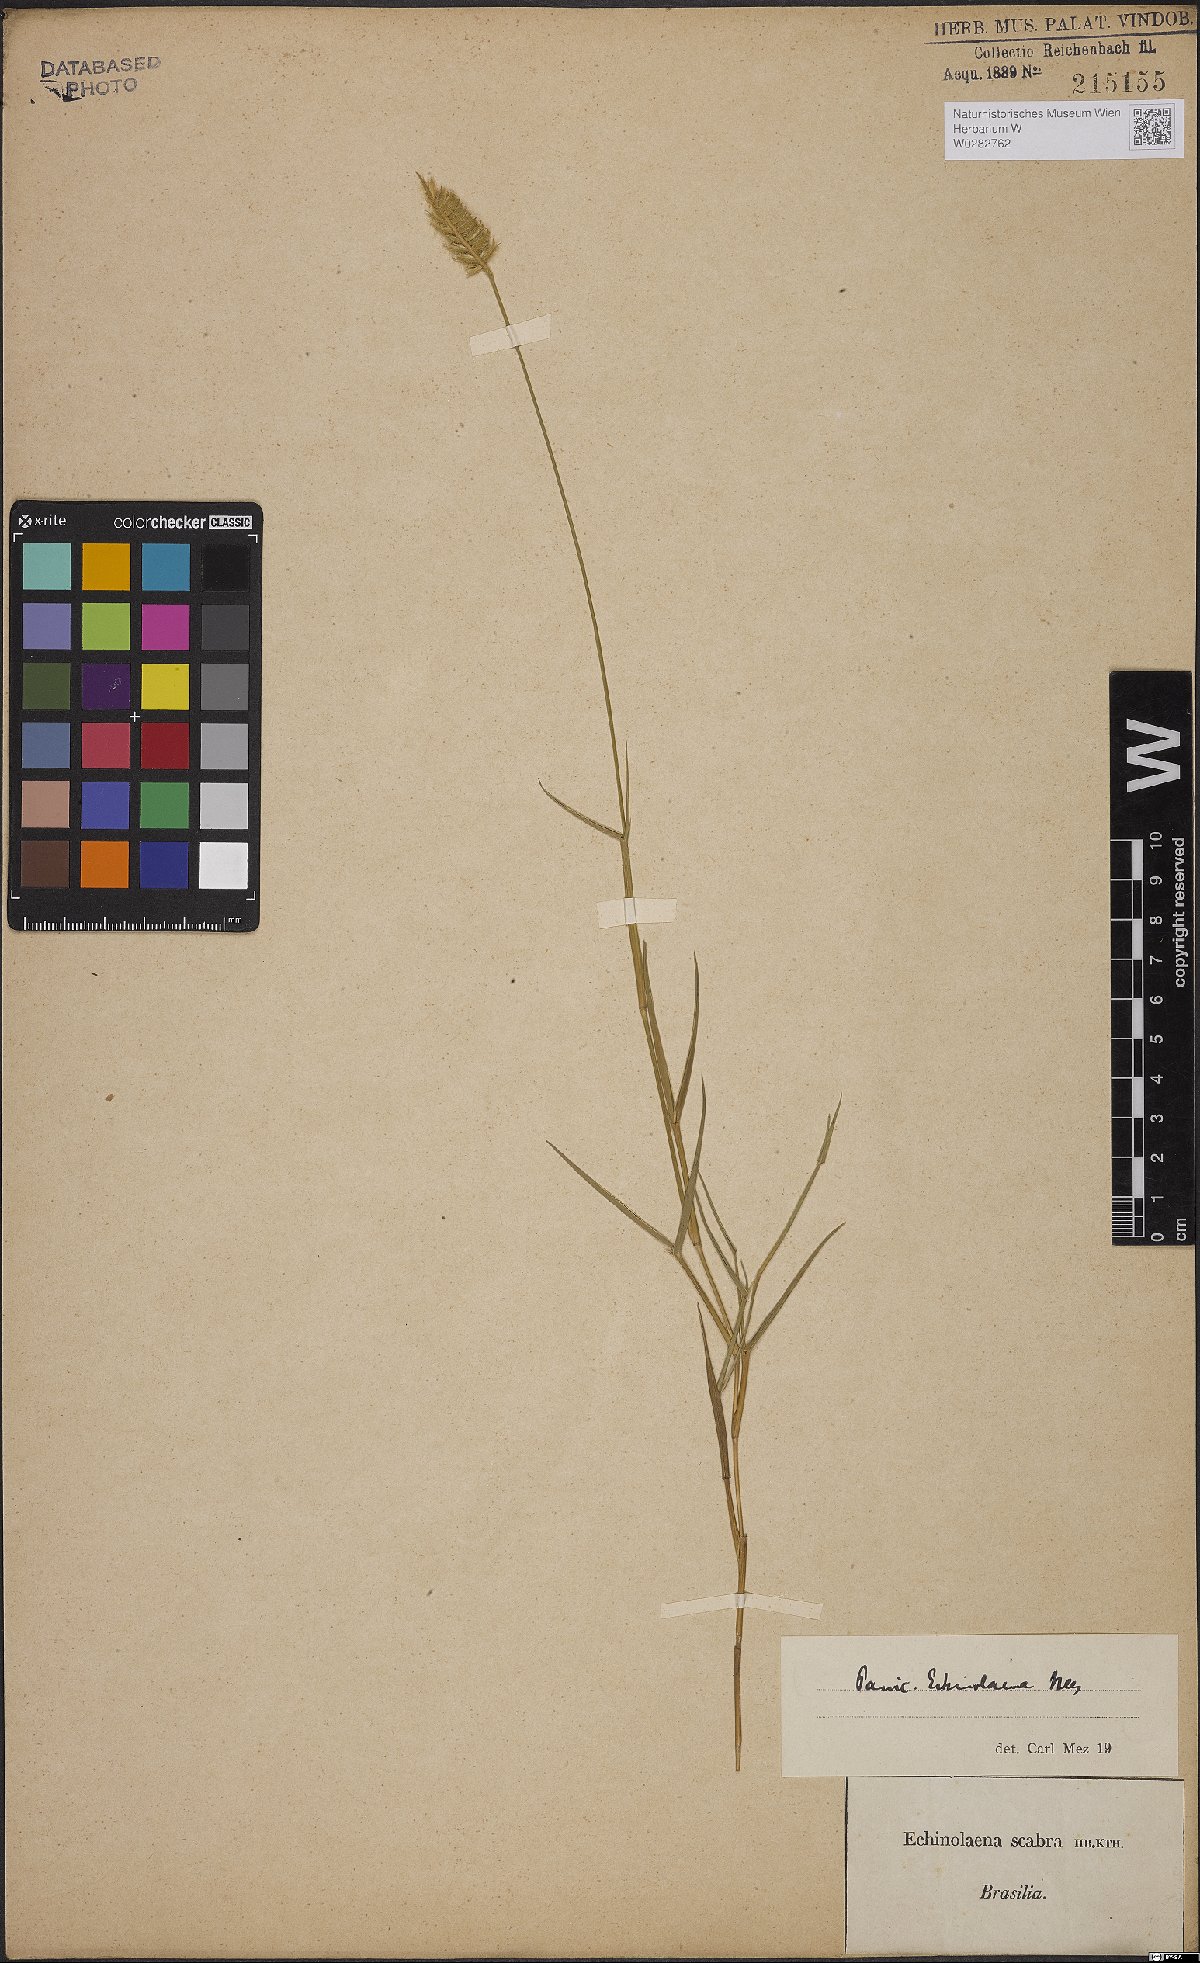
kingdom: Plantae
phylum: Tracheophyta
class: Liliopsida
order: Poales
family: Poaceae
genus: Echinolaena
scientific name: Echinolaena inflexa
